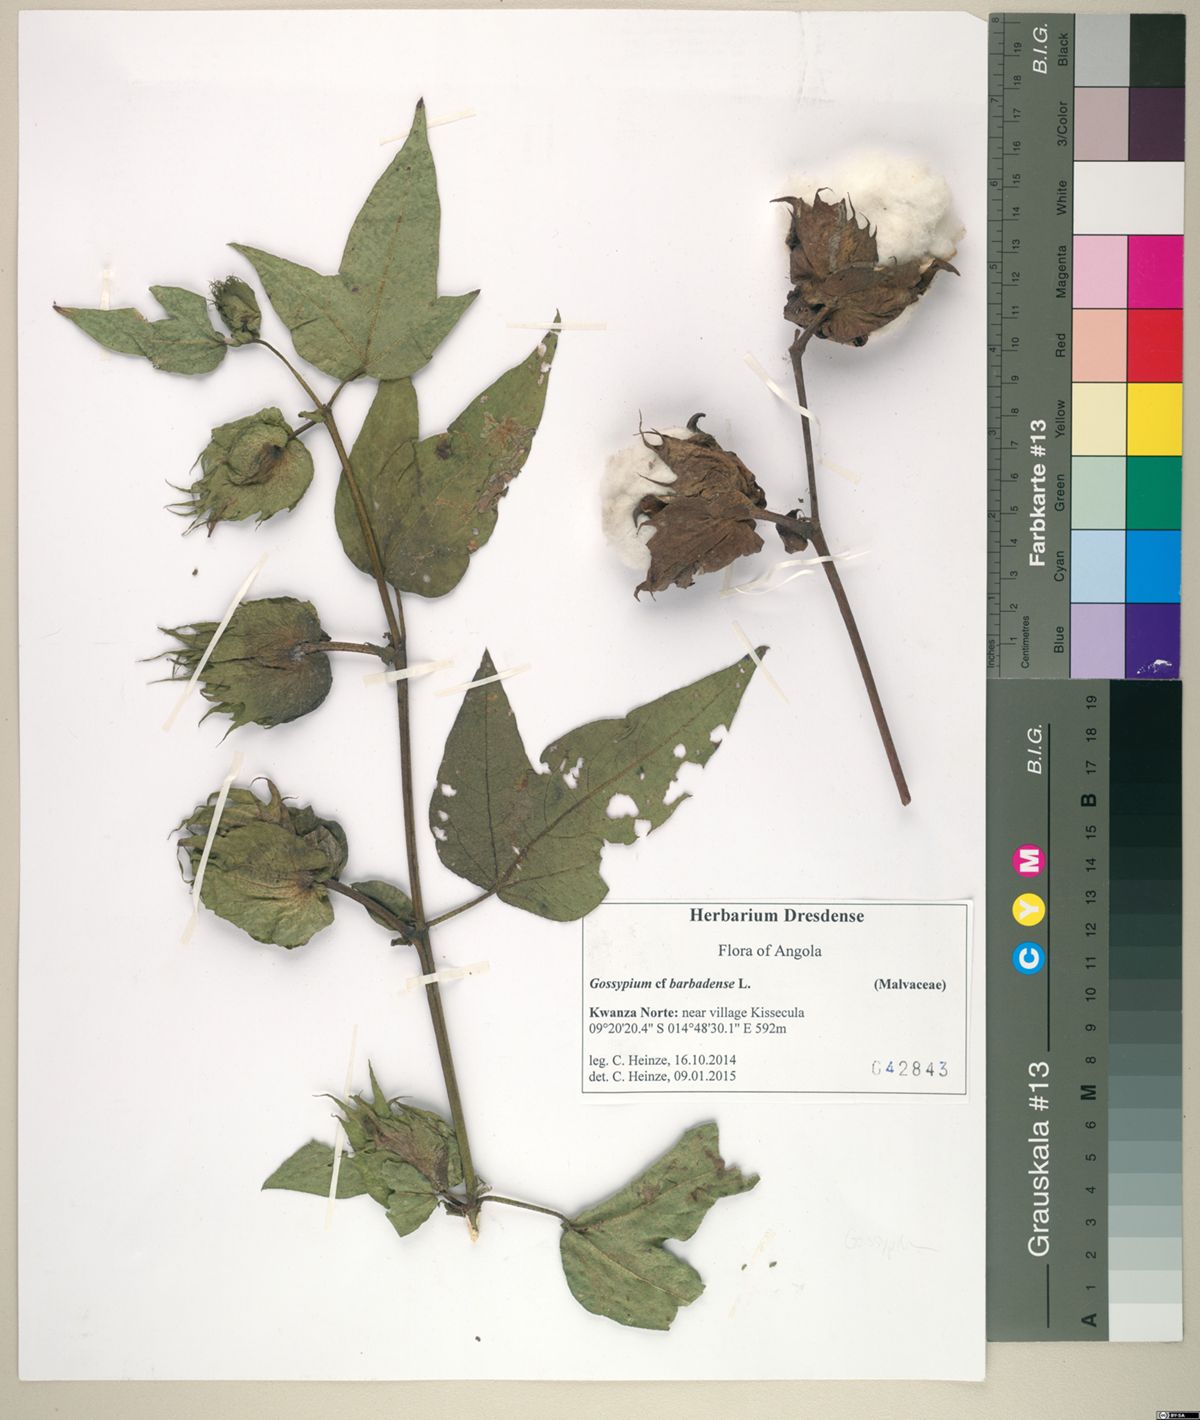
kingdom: Plantae
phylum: Tracheophyta
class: Magnoliopsida
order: Malvales
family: Malvaceae
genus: Gossypium
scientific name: Gossypium barbadense
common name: Creole cotton
